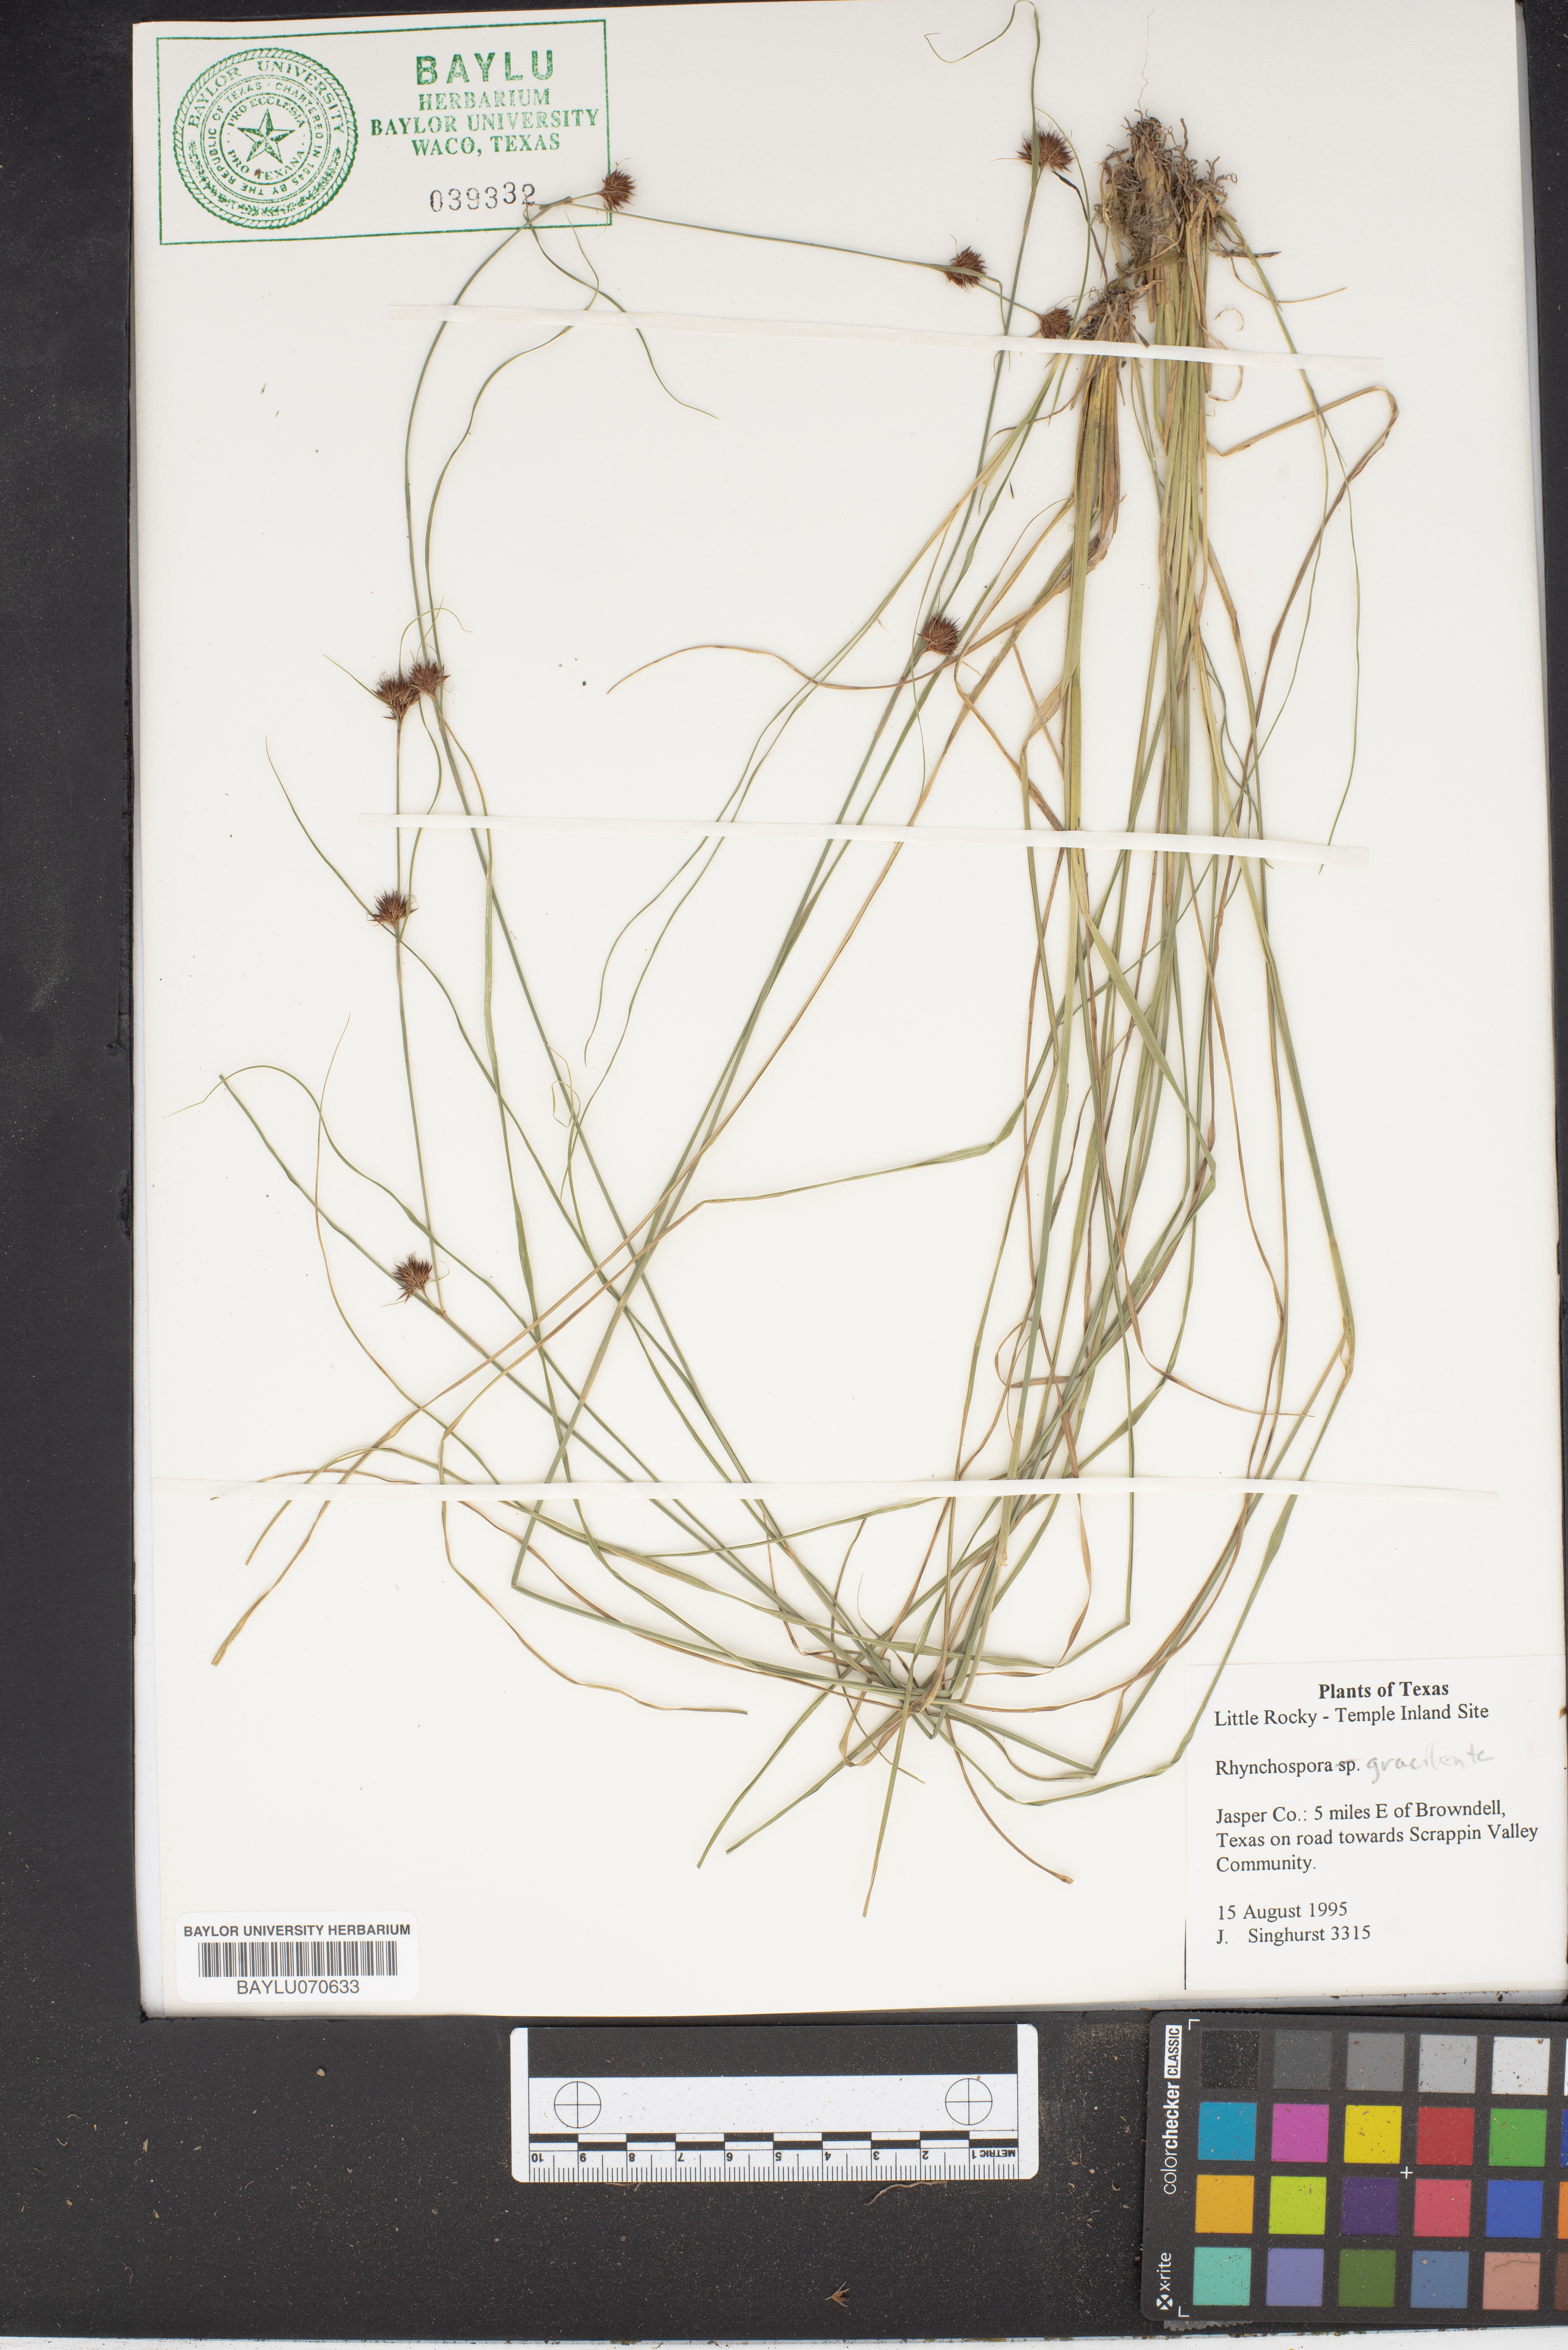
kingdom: Plantae
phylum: Tracheophyta
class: Liliopsida
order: Poales
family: Cyperaceae
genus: Rhynchospora
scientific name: Rhynchospora gracilenta
